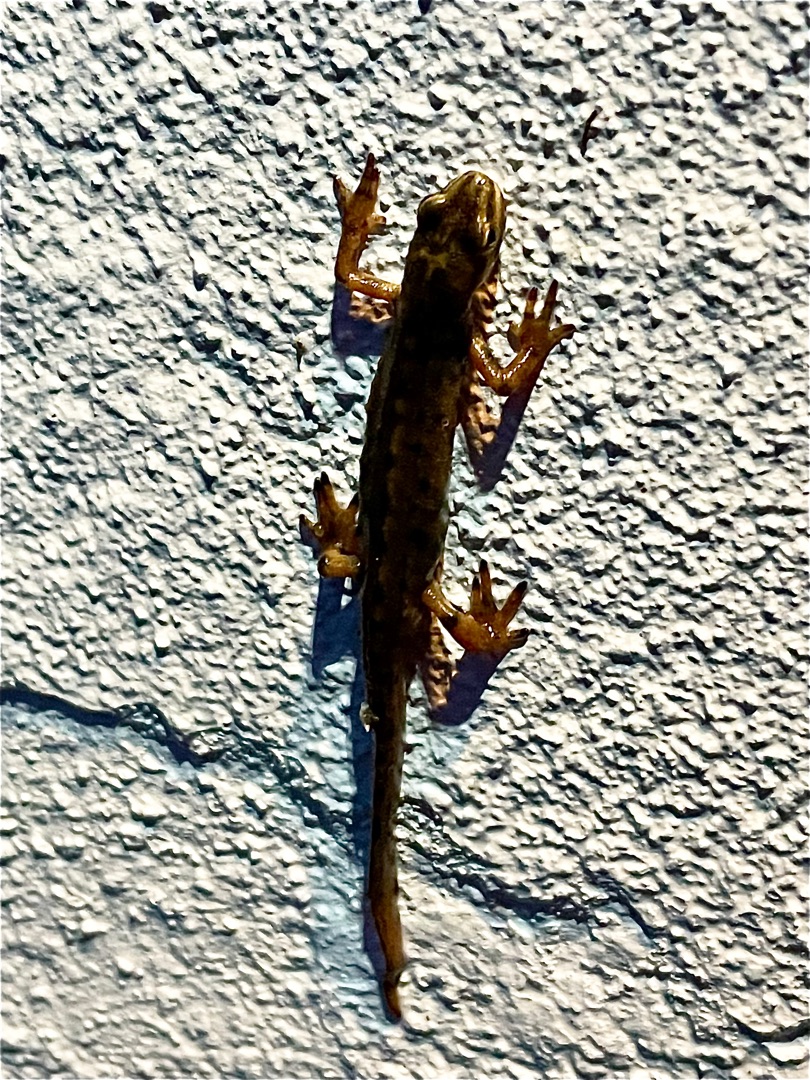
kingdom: Animalia
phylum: Chordata
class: Amphibia
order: Caudata
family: Salamandridae
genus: Lissotriton
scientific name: Lissotriton vulgaris
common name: Lille vandsalamander
